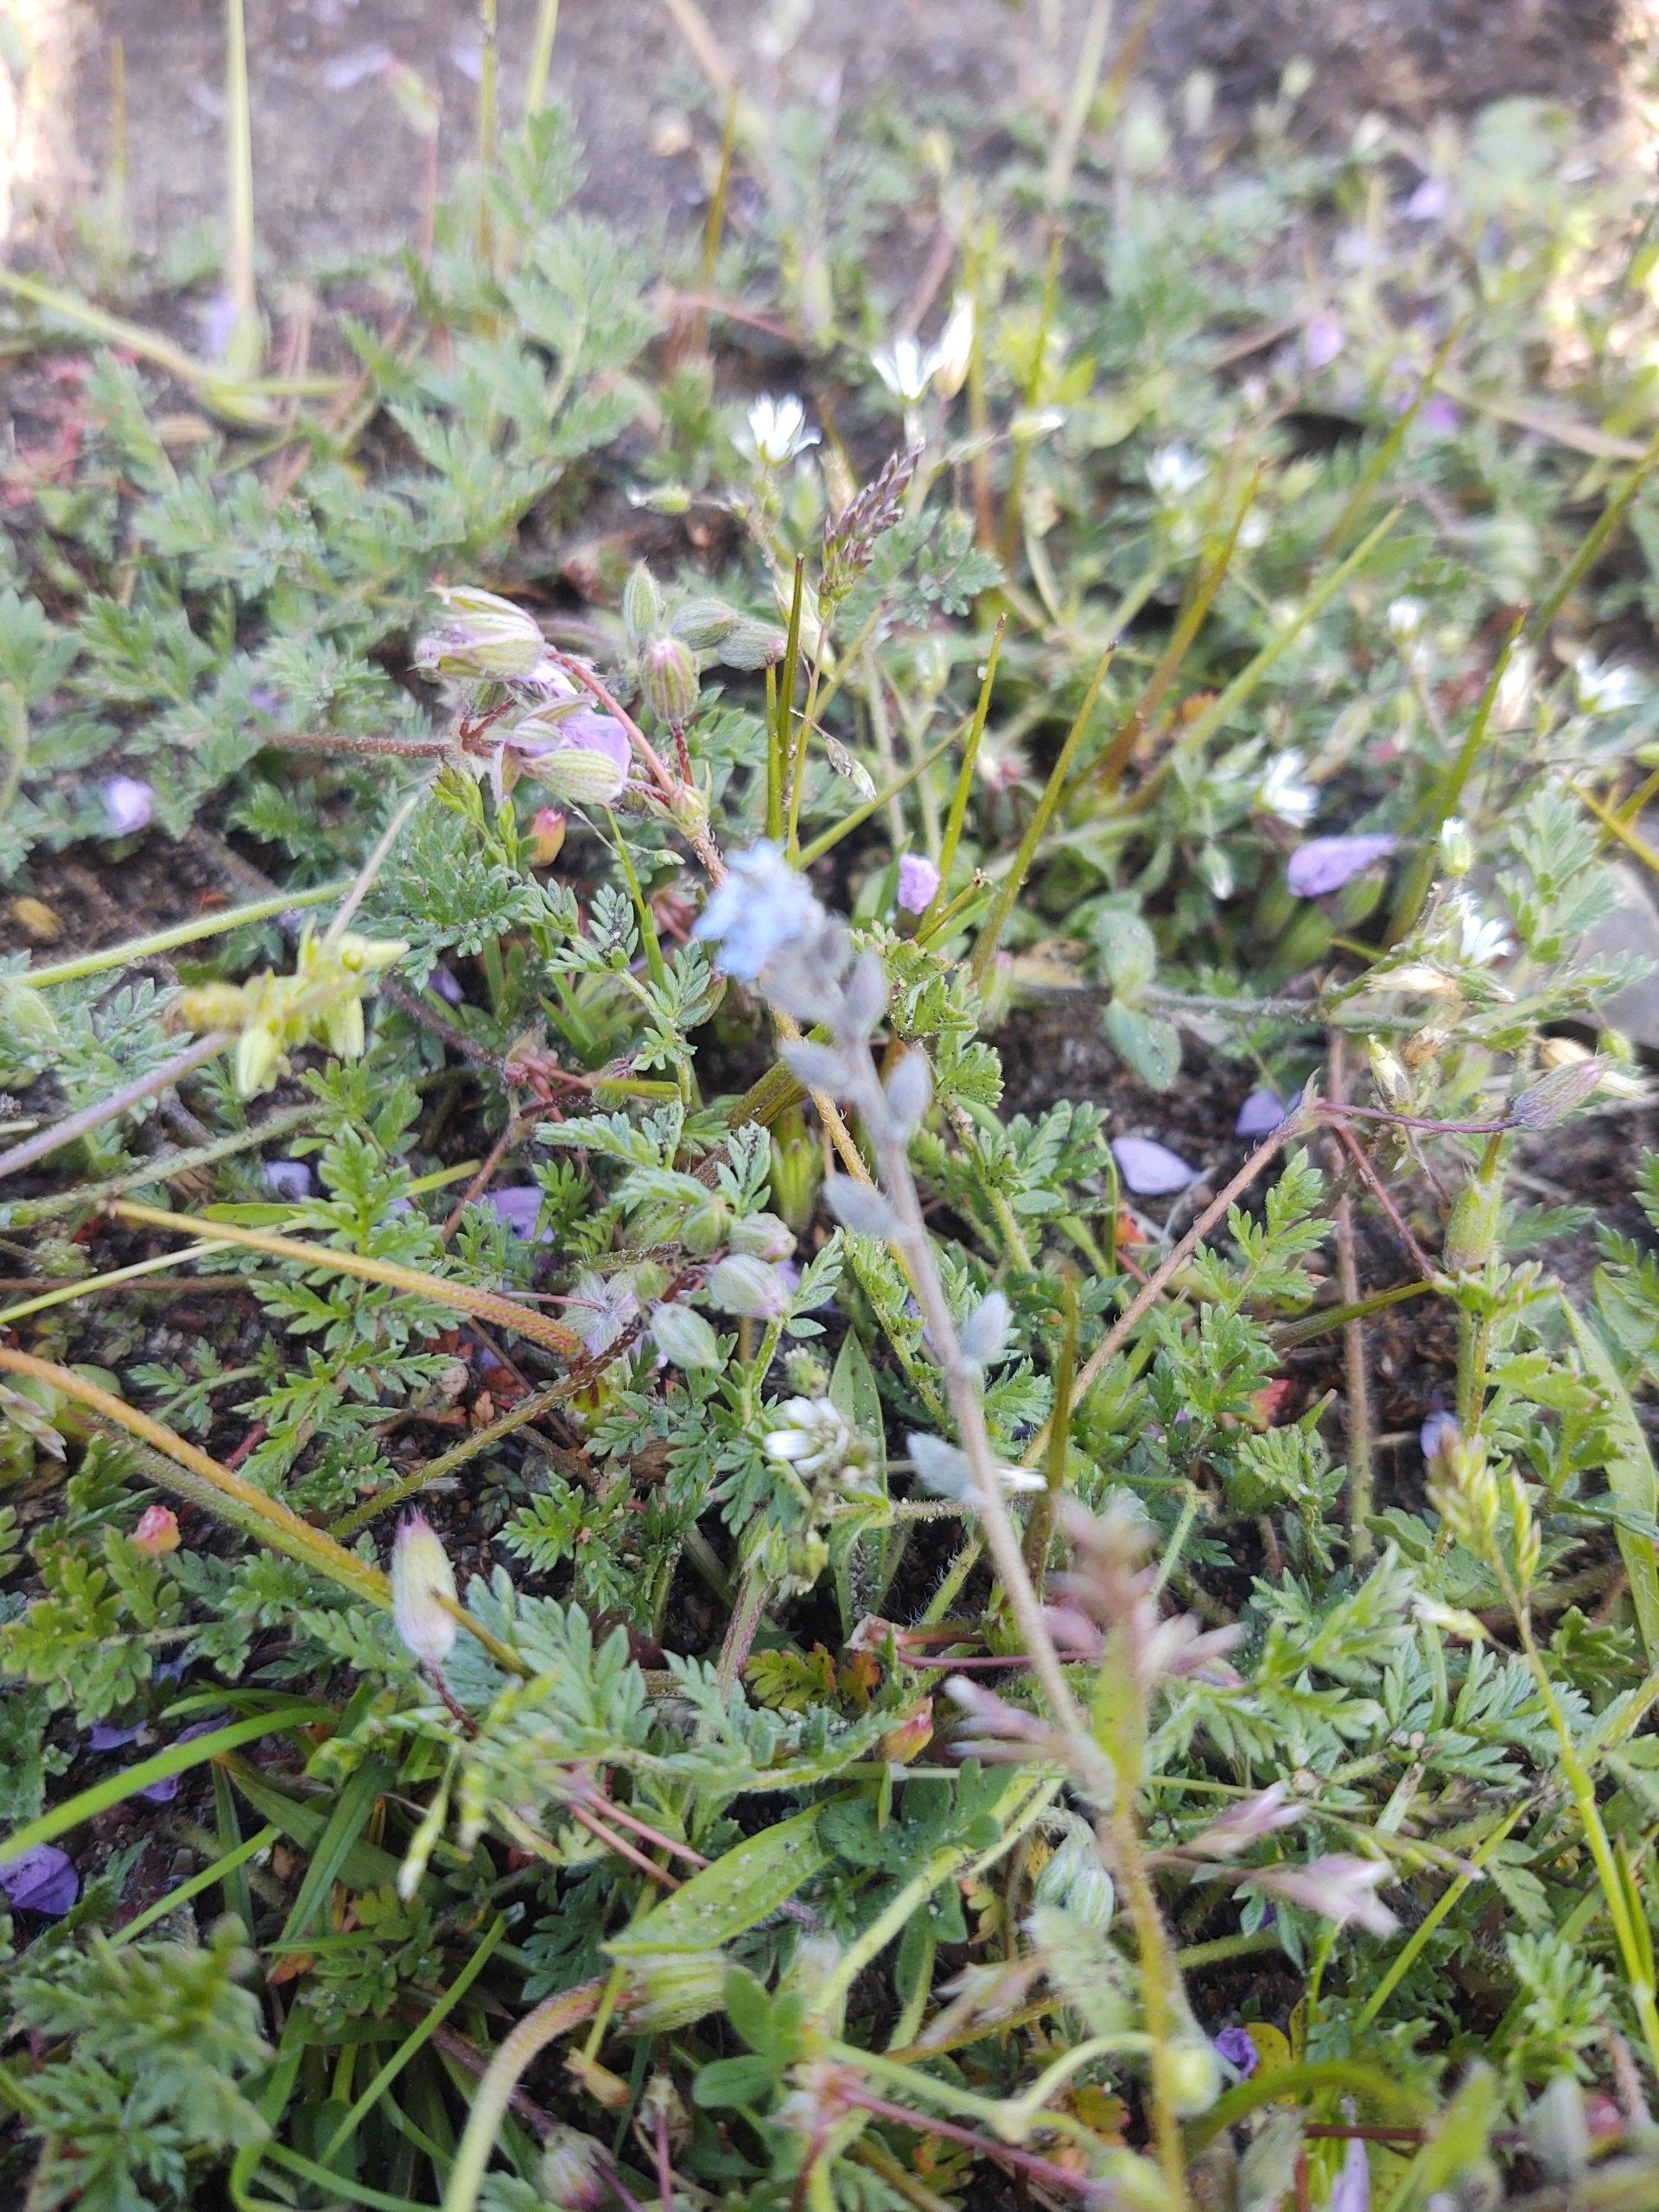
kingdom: Plantae
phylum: Tracheophyta
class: Magnoliopsida
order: Boraginales
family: Boraginaceae
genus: Myosotis
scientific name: Myosotis stricta
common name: Rank forglemmigej
